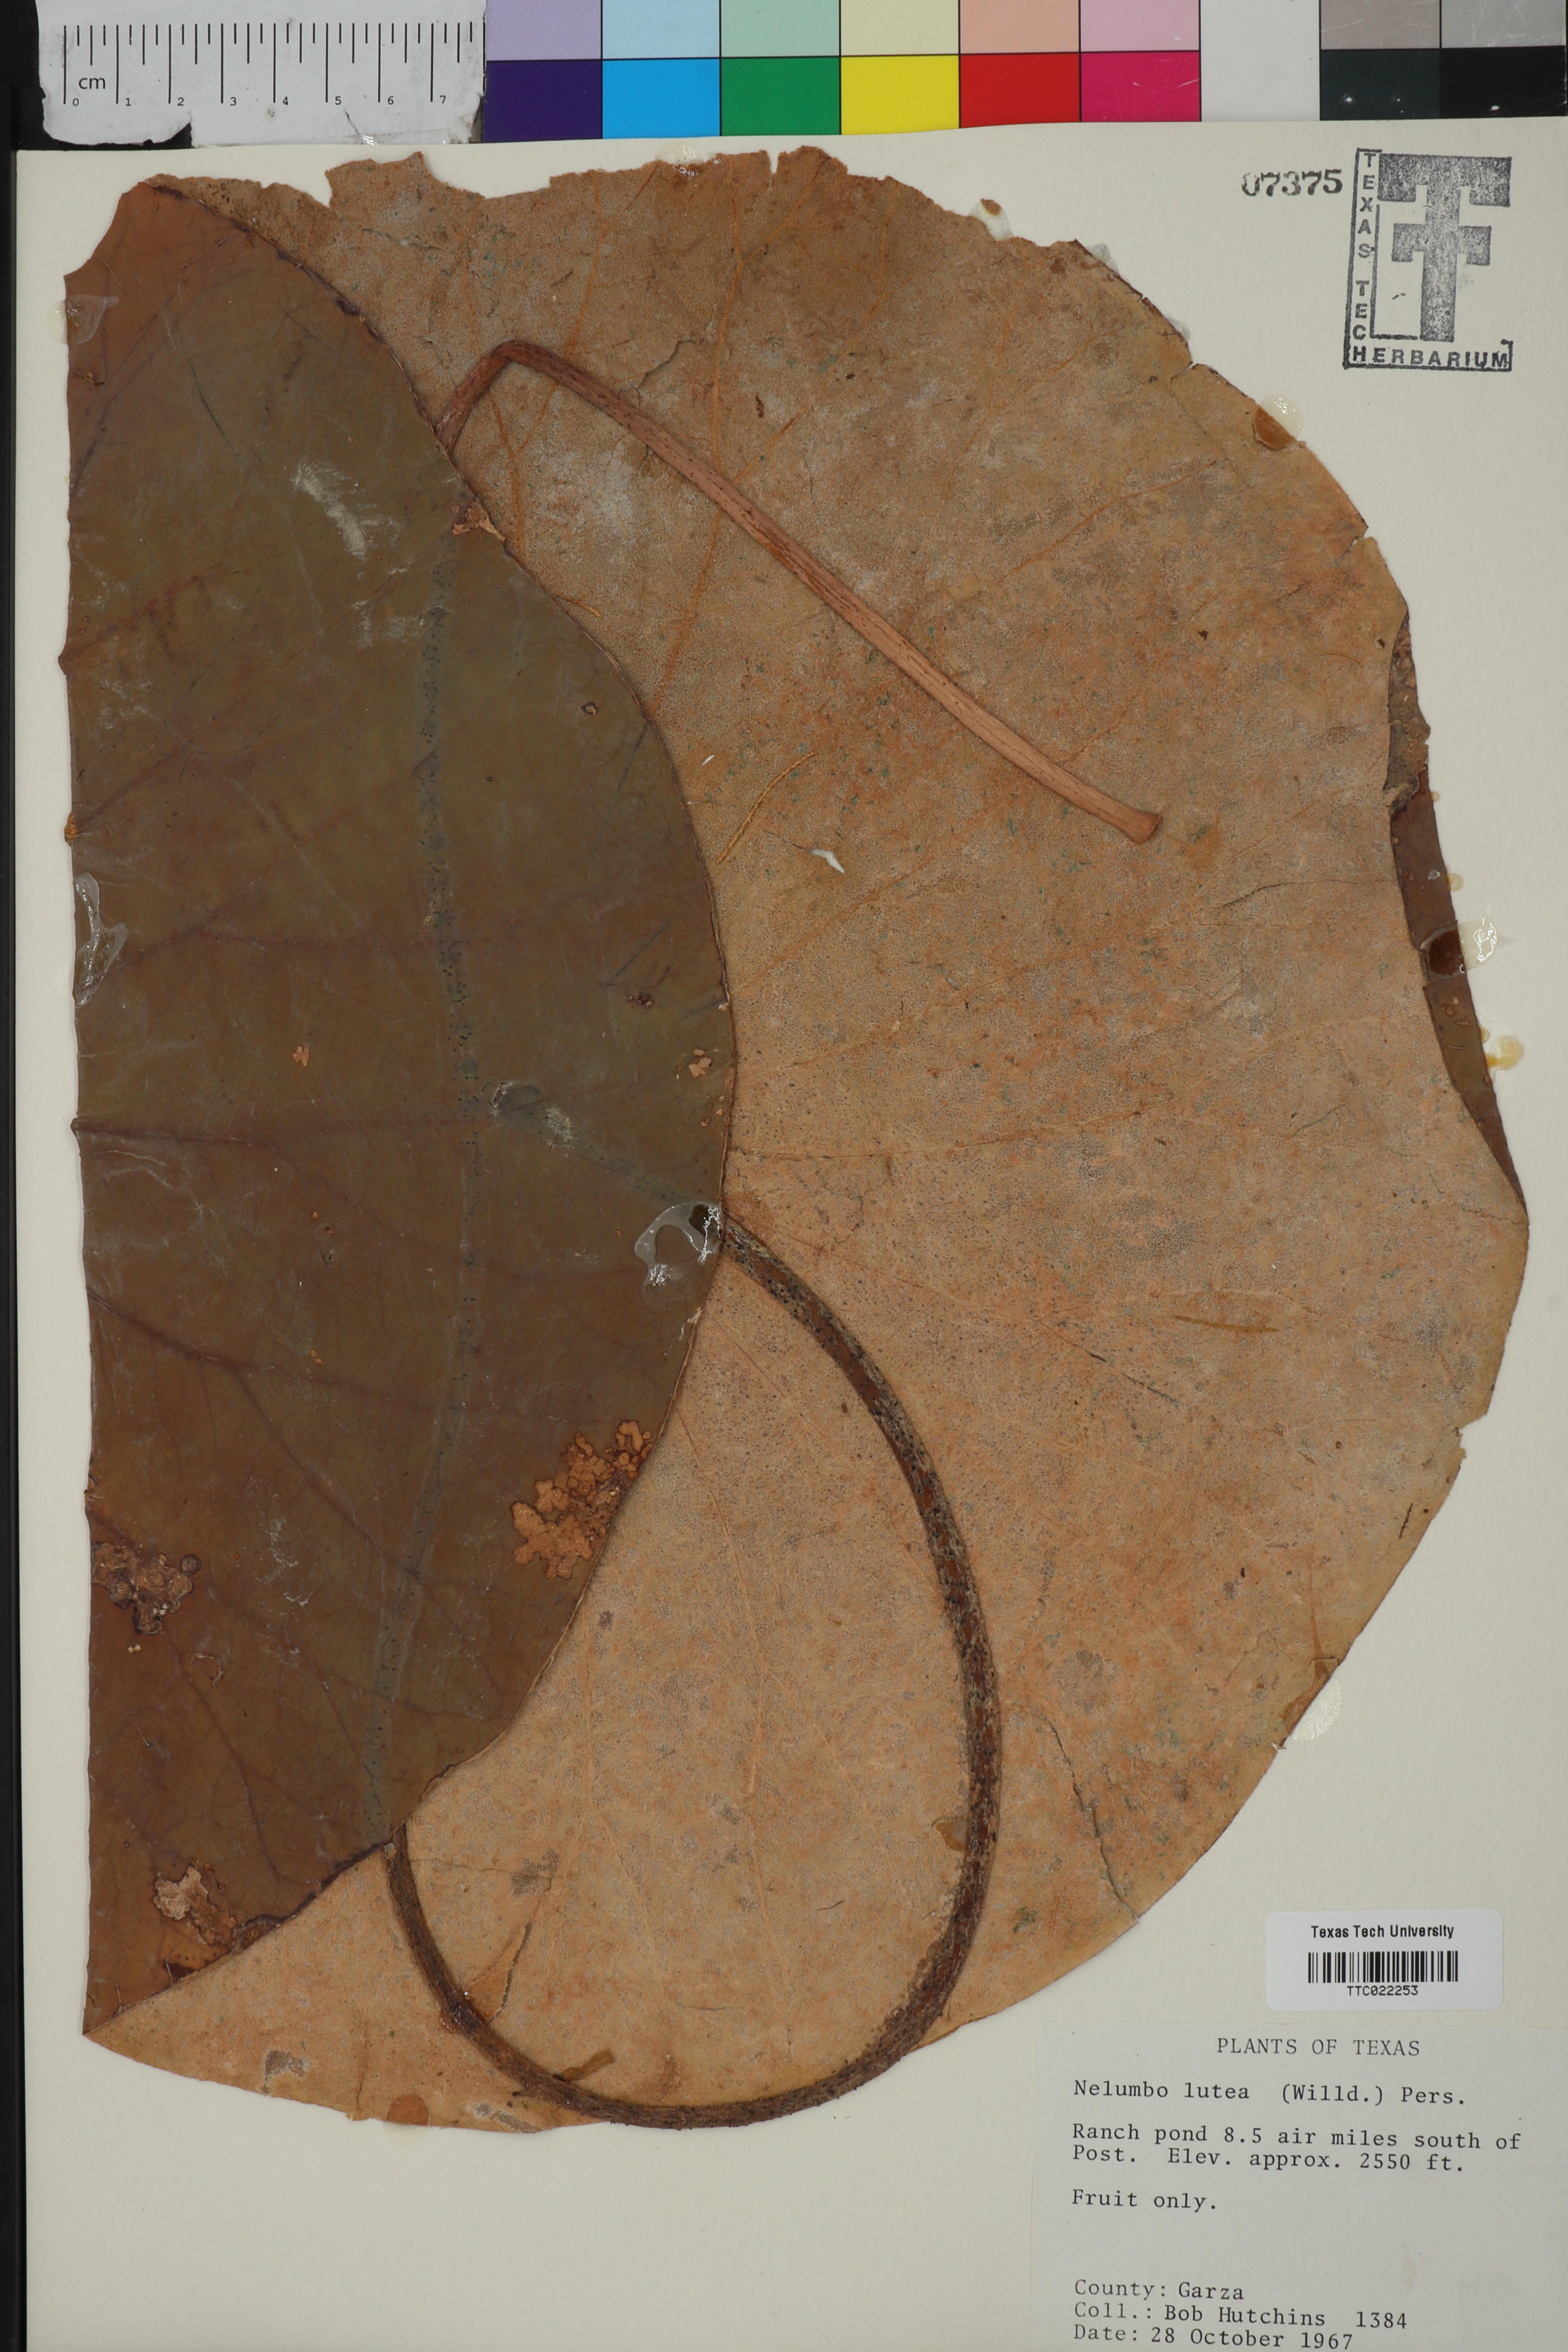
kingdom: Plantae
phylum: Tracheophyta
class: Magnoliopsida
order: Proteales
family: Nelumbonaceae
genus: Nelumbo
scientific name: Nelumbo lutea
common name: American lotus
